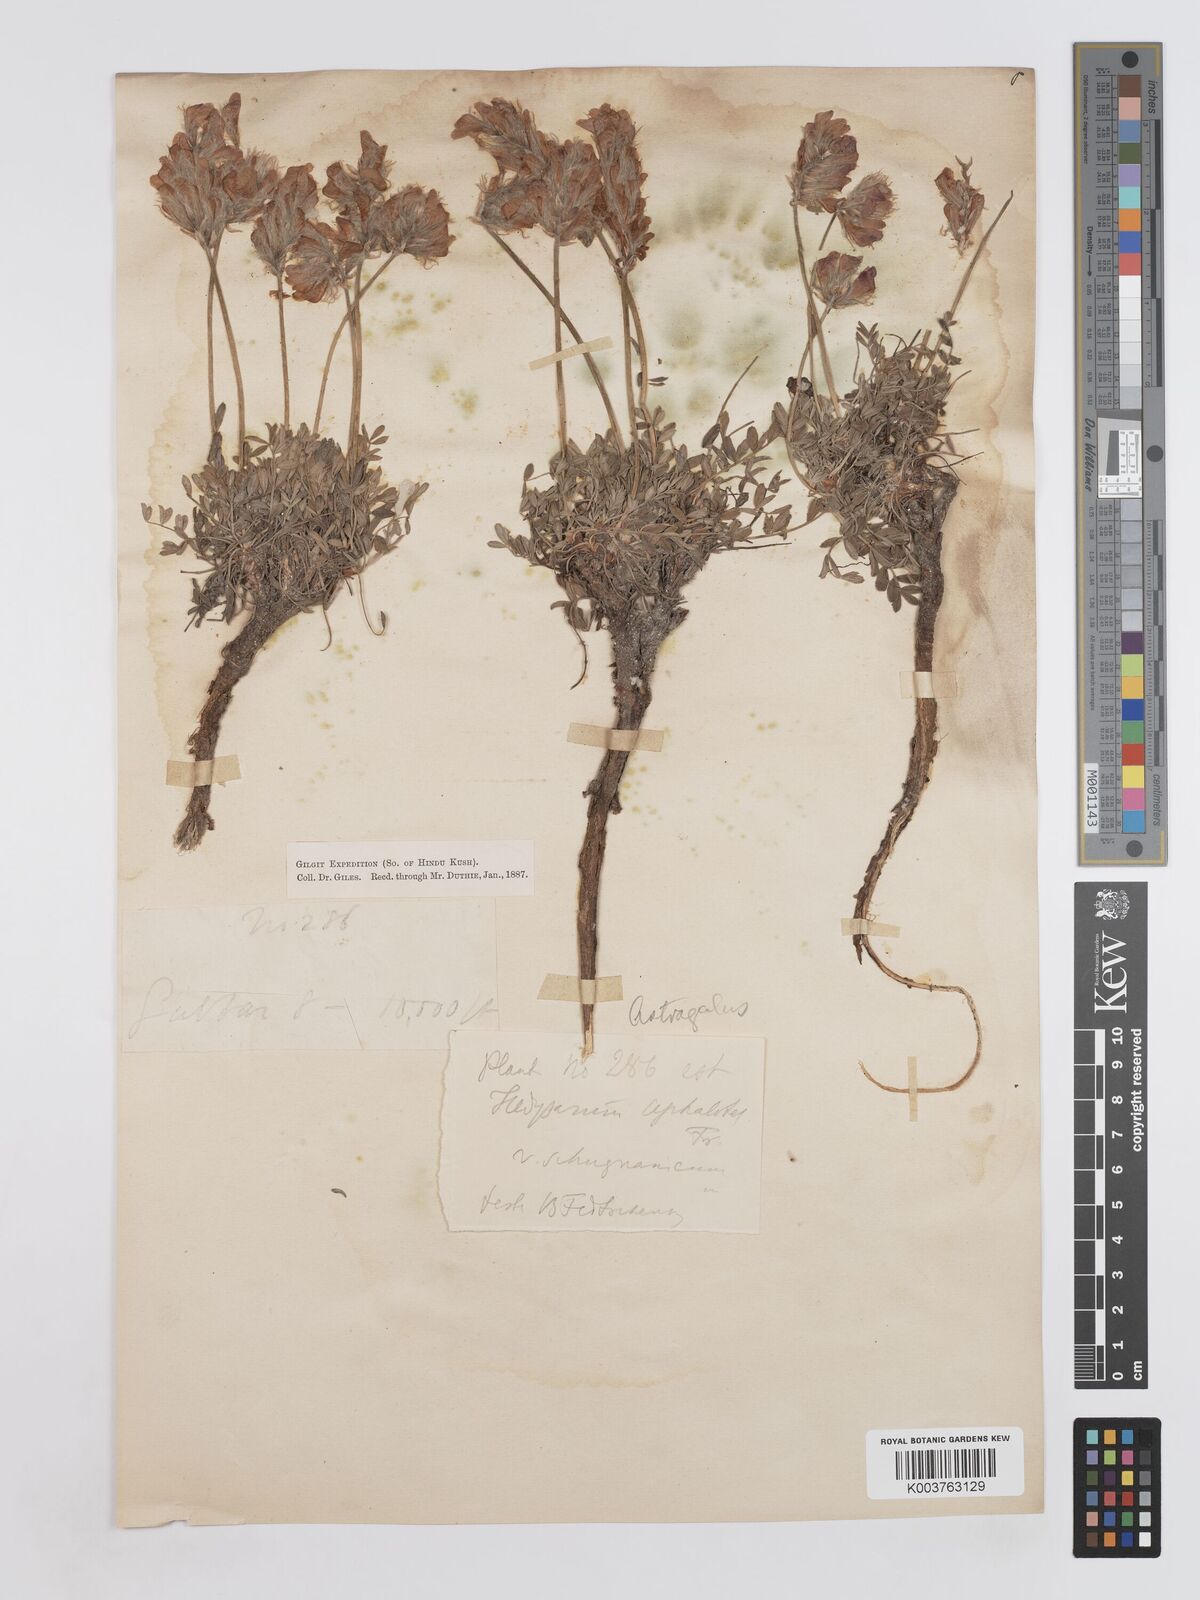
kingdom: Plantae
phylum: Tracheophyta
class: Magnoliopsida
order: Fabales
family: Fabaceae
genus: Hedysarum
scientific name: Hedysarum minjanense
